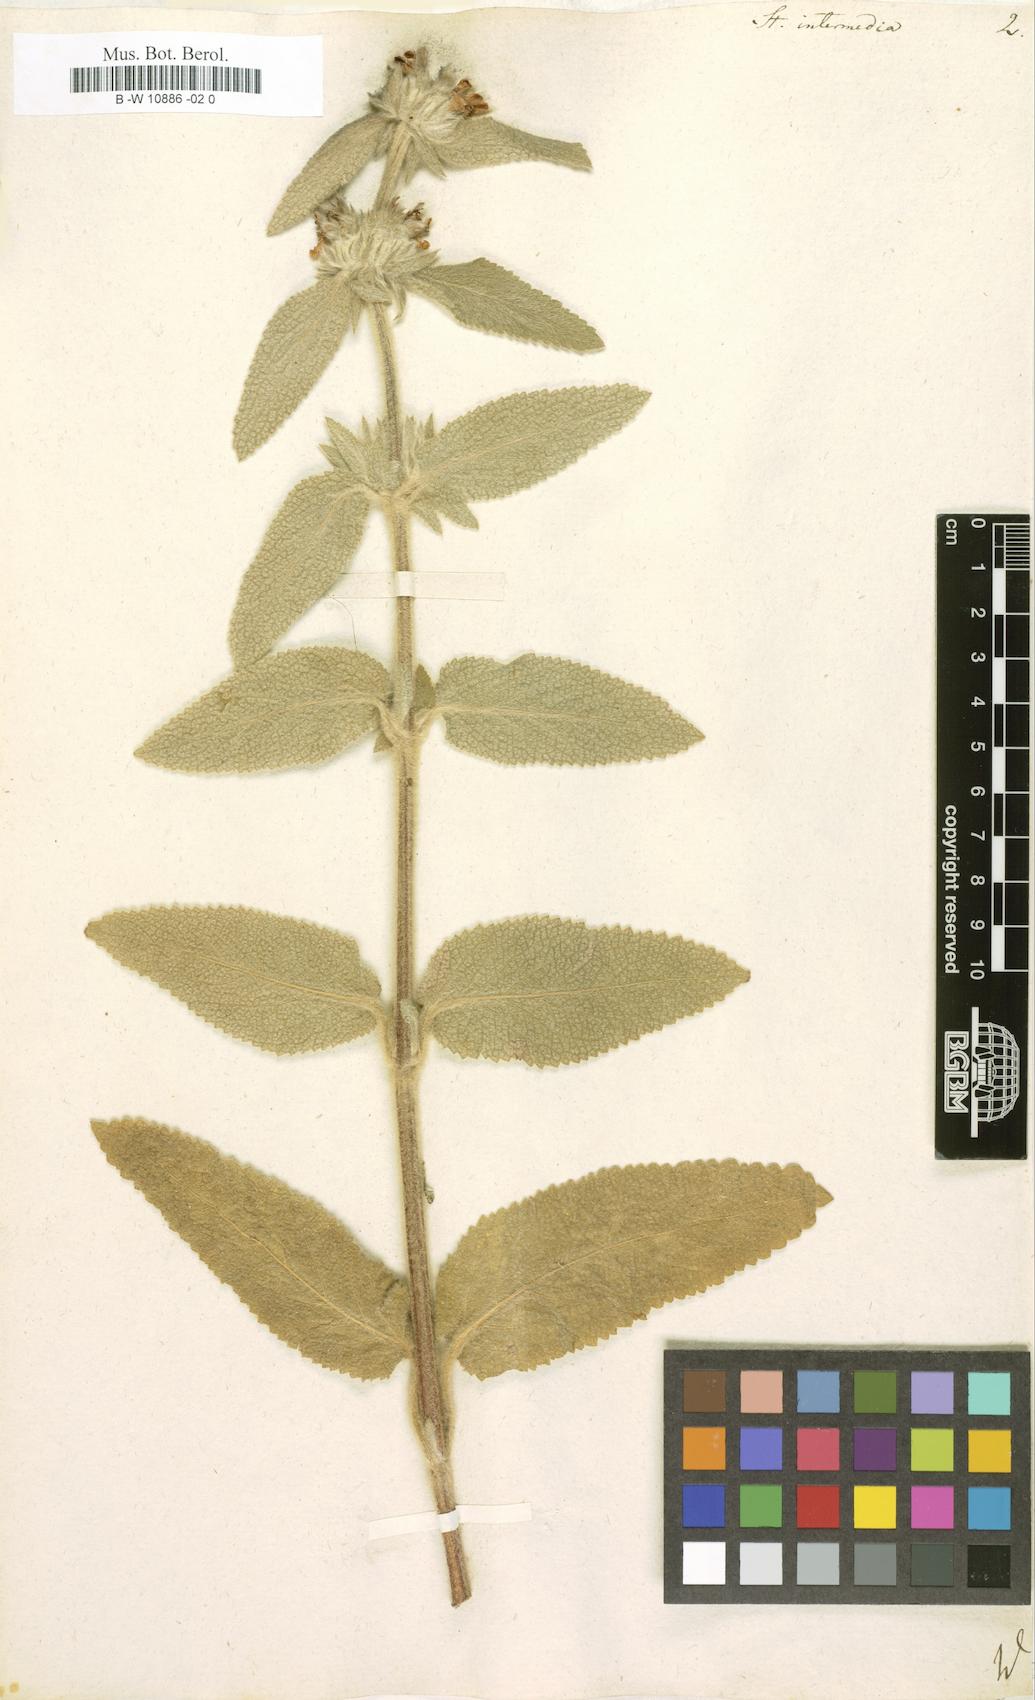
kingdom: Plantae
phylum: Tracheophyta
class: Magnoliopsida
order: Lamiales
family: Lamiaceae
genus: Stachys
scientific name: Stachys intermedia
